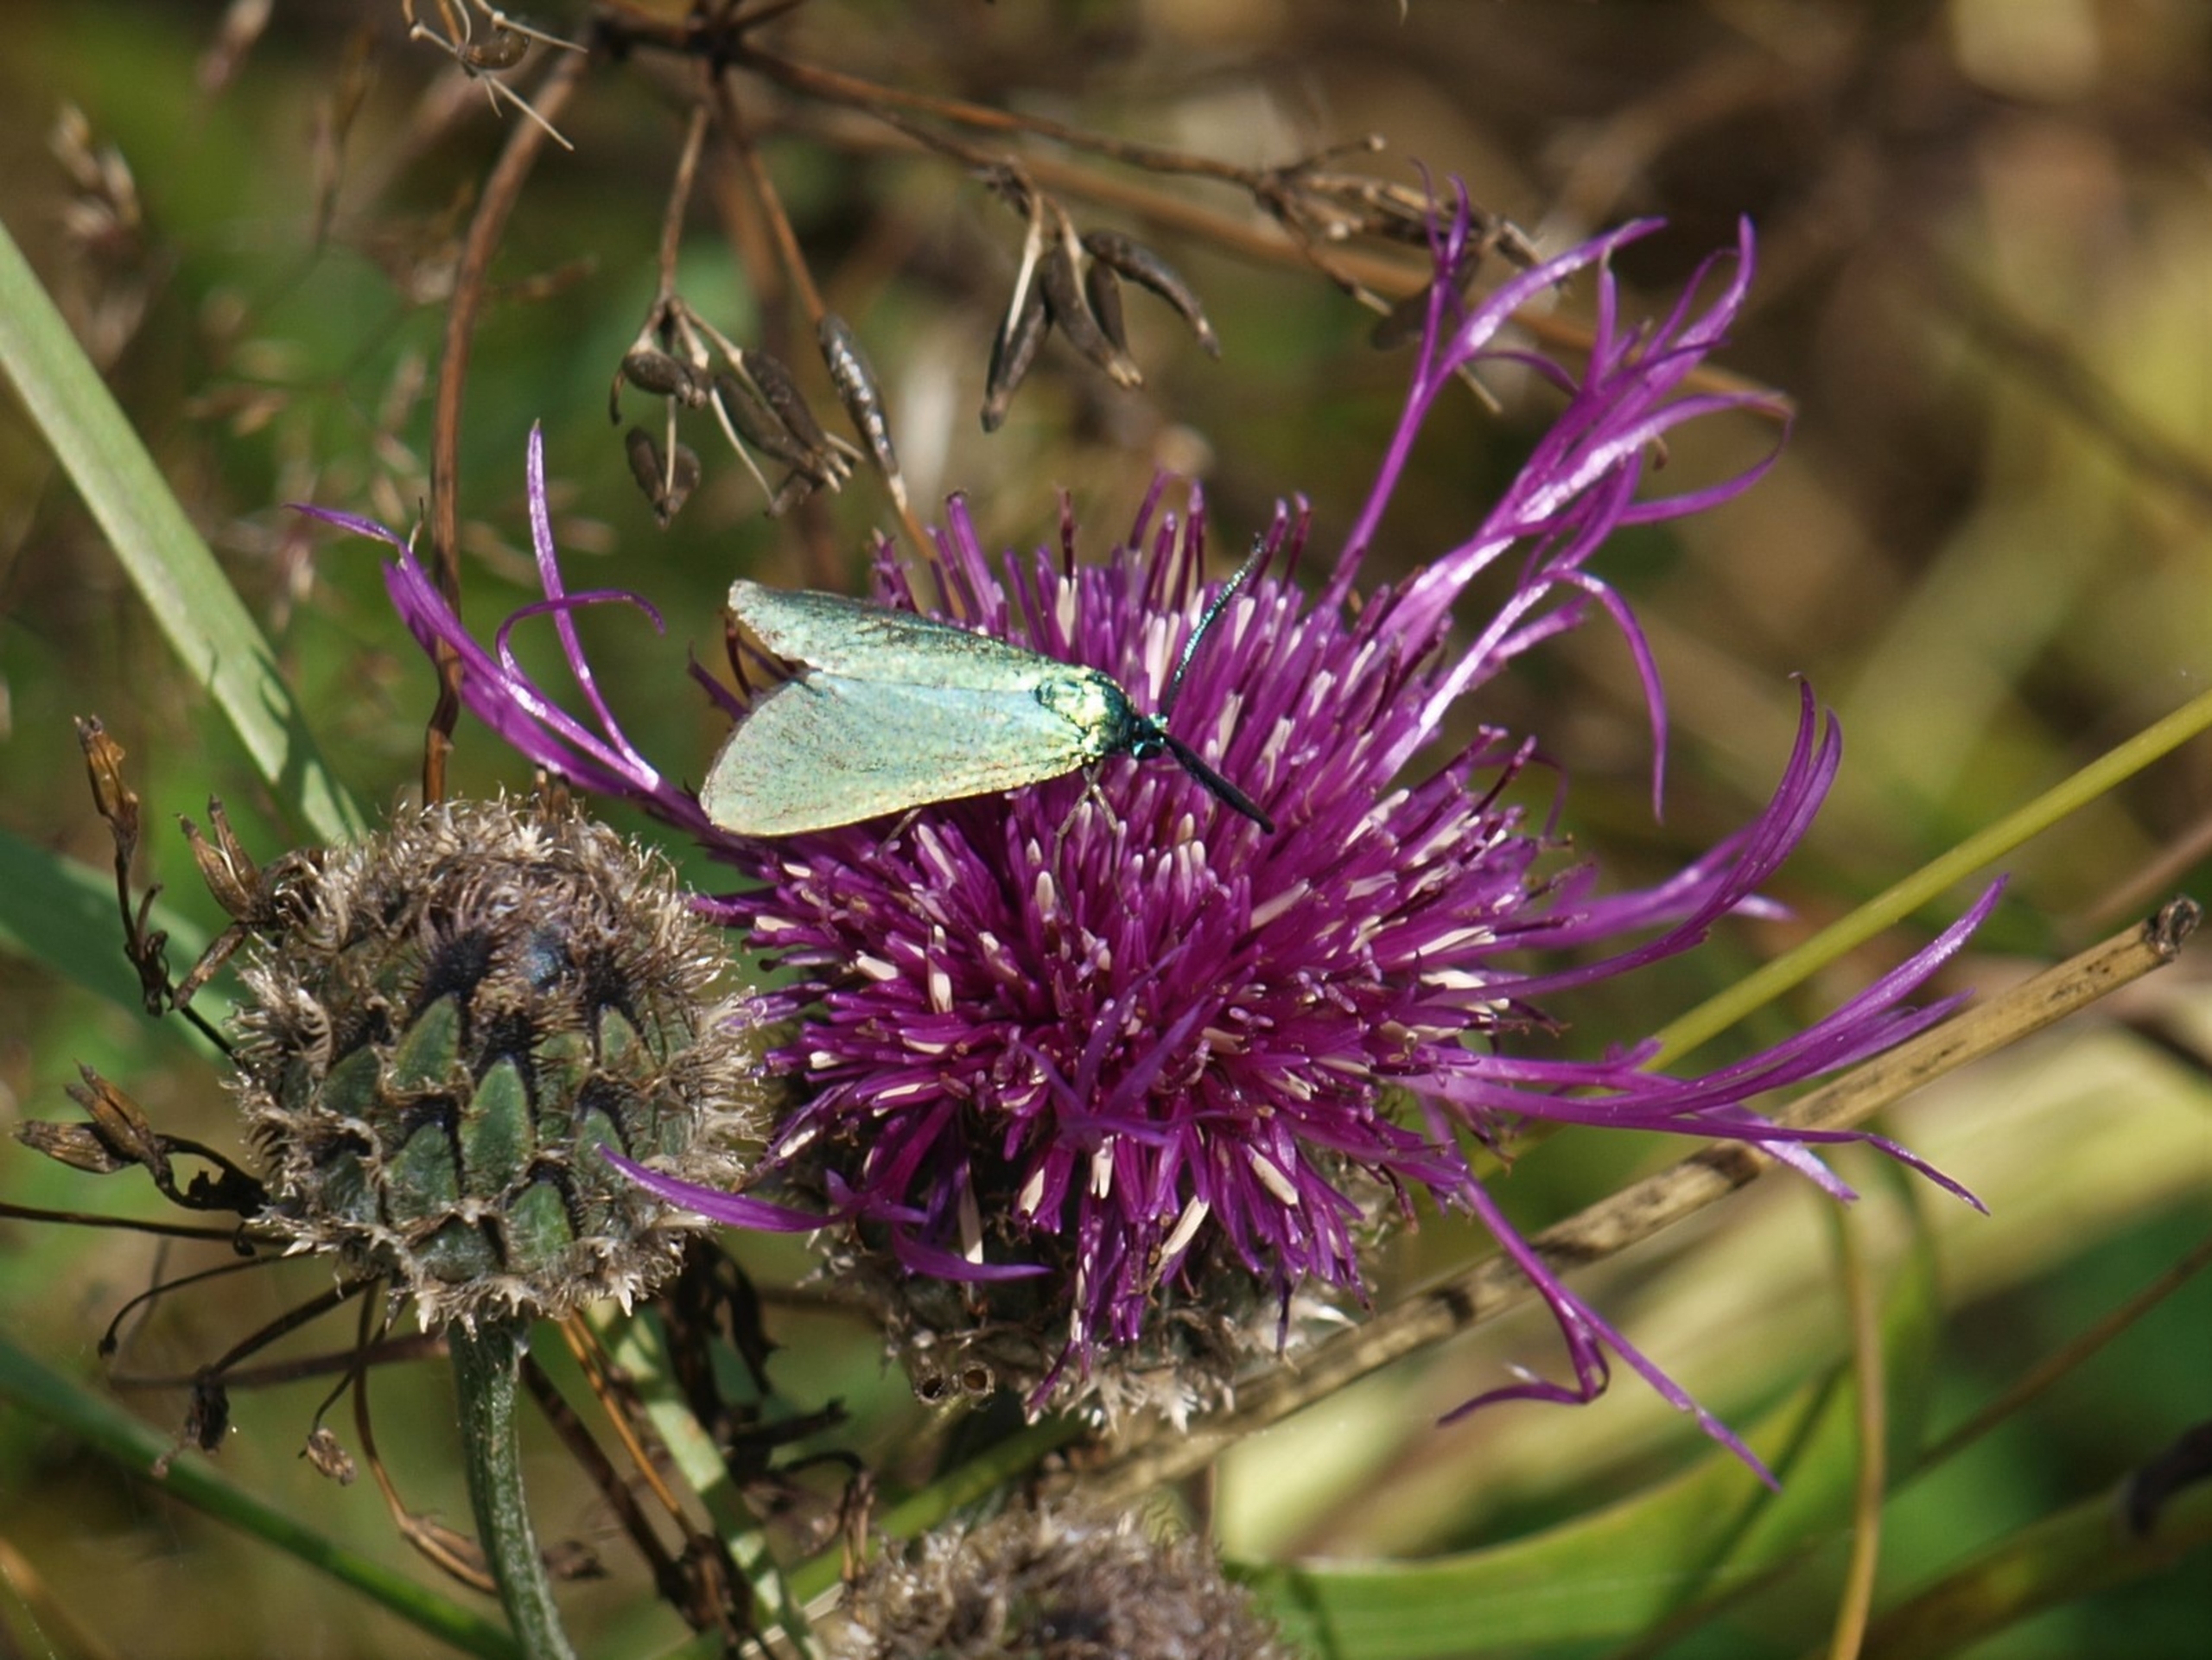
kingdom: Animalia
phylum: Arthropoda
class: Insecta
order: Lepidoptera
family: Zygaenidae
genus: Adscita
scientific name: Adscita statices
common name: Metalvinge
